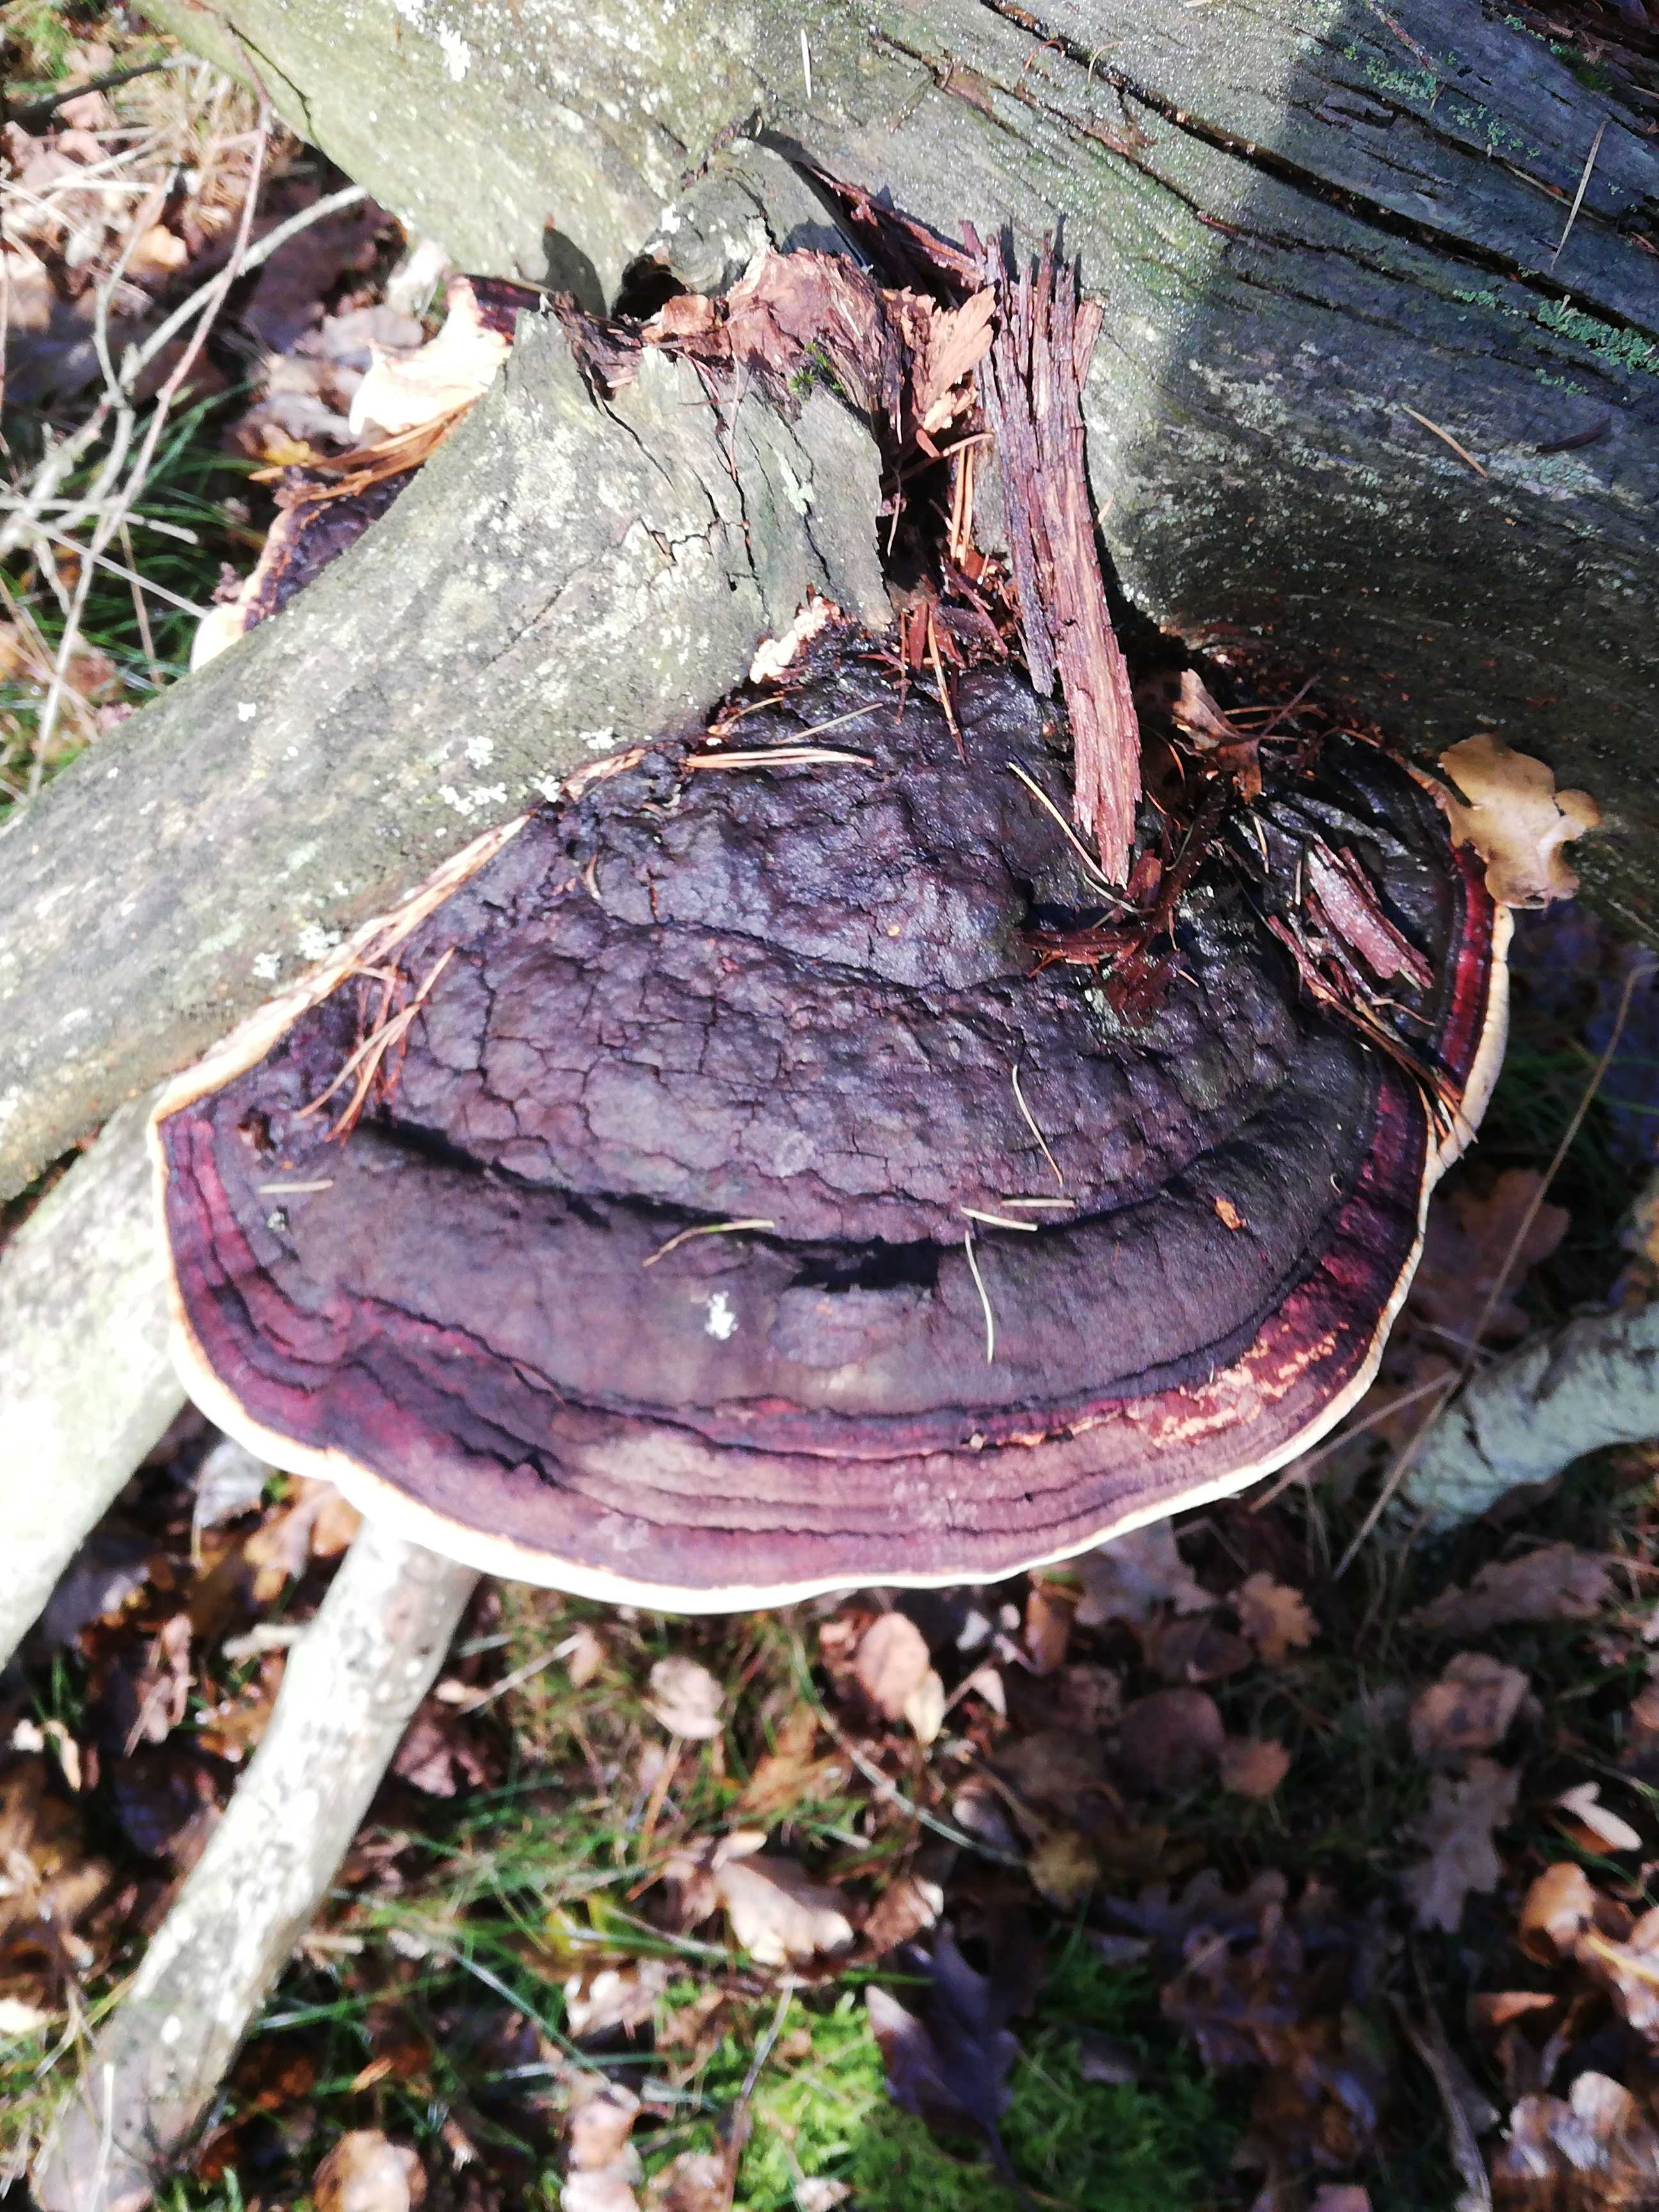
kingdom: Fungi
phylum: Basidiomycota
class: Agaricomycetes
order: Polyporales
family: Fomitopsidaceae
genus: Fomitopsis
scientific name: Fomitopsis pinicola
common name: randbæltet hovporesvamp
